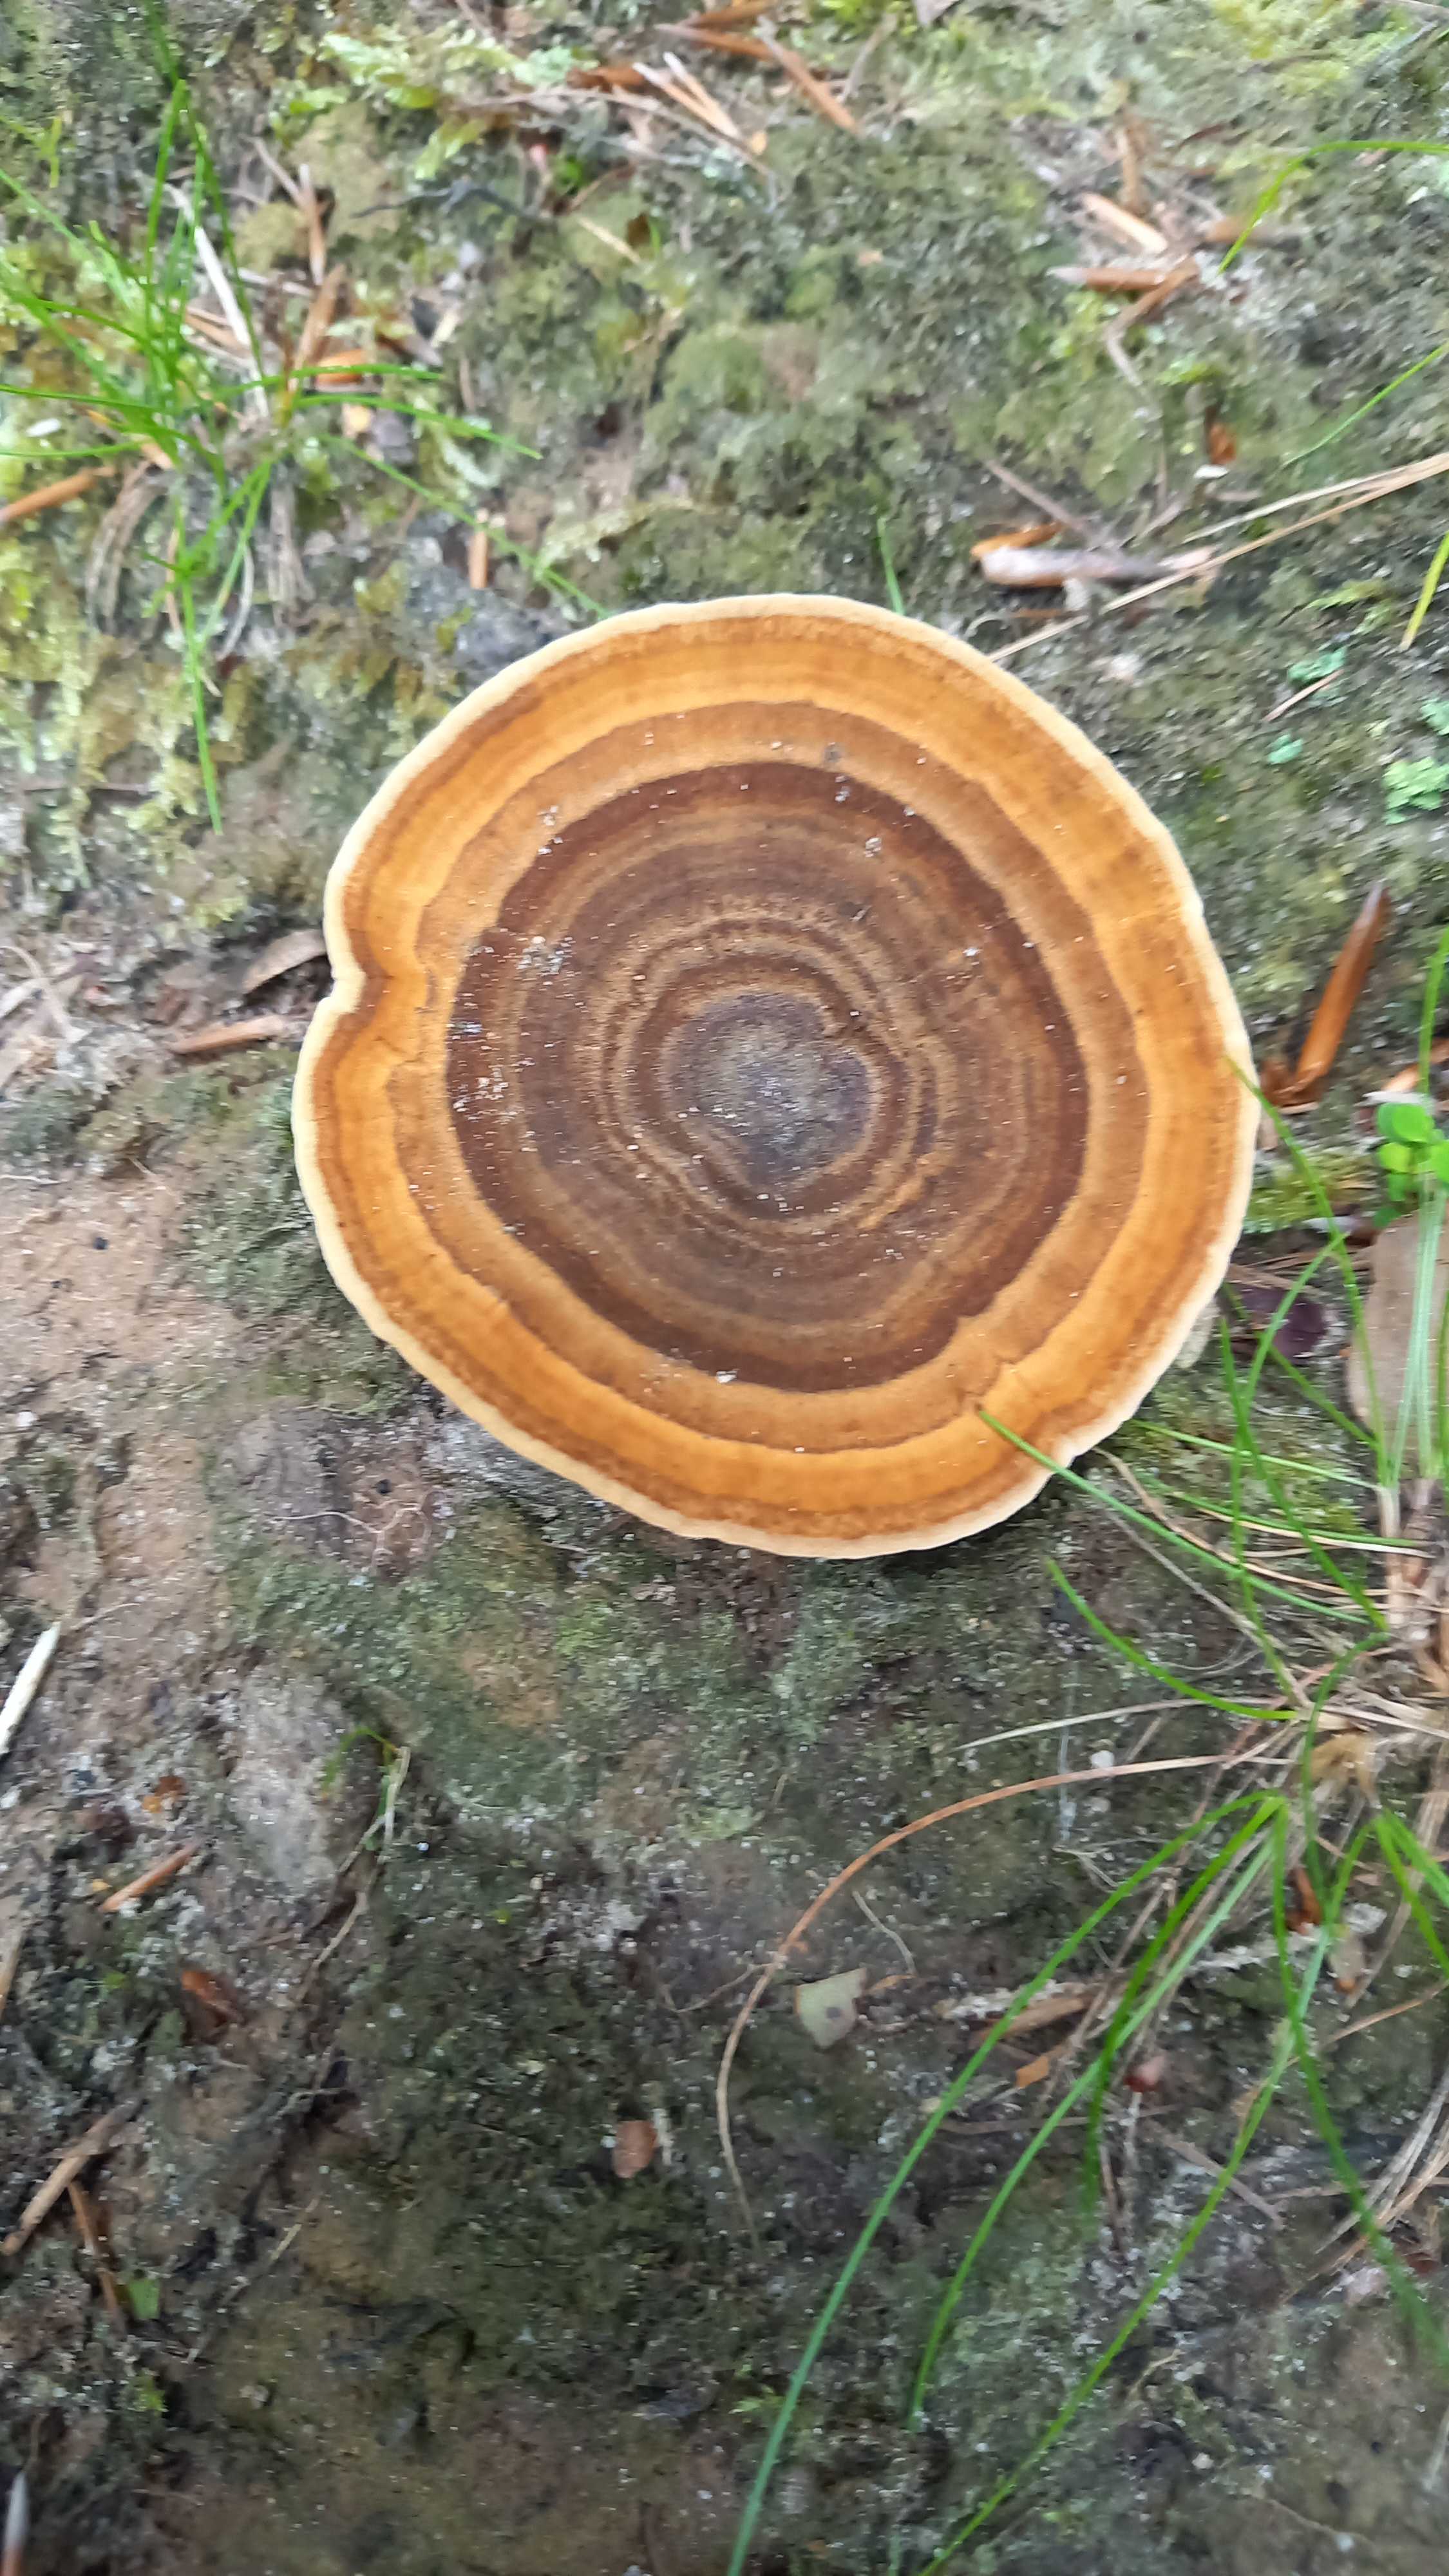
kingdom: Fungi
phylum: Basidiomycota
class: Agaricomycetes
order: Hymenochaetales
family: Hymenochaetaceae
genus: Coltricia
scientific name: Coltricia perennis
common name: almindelig sandporesvamp
